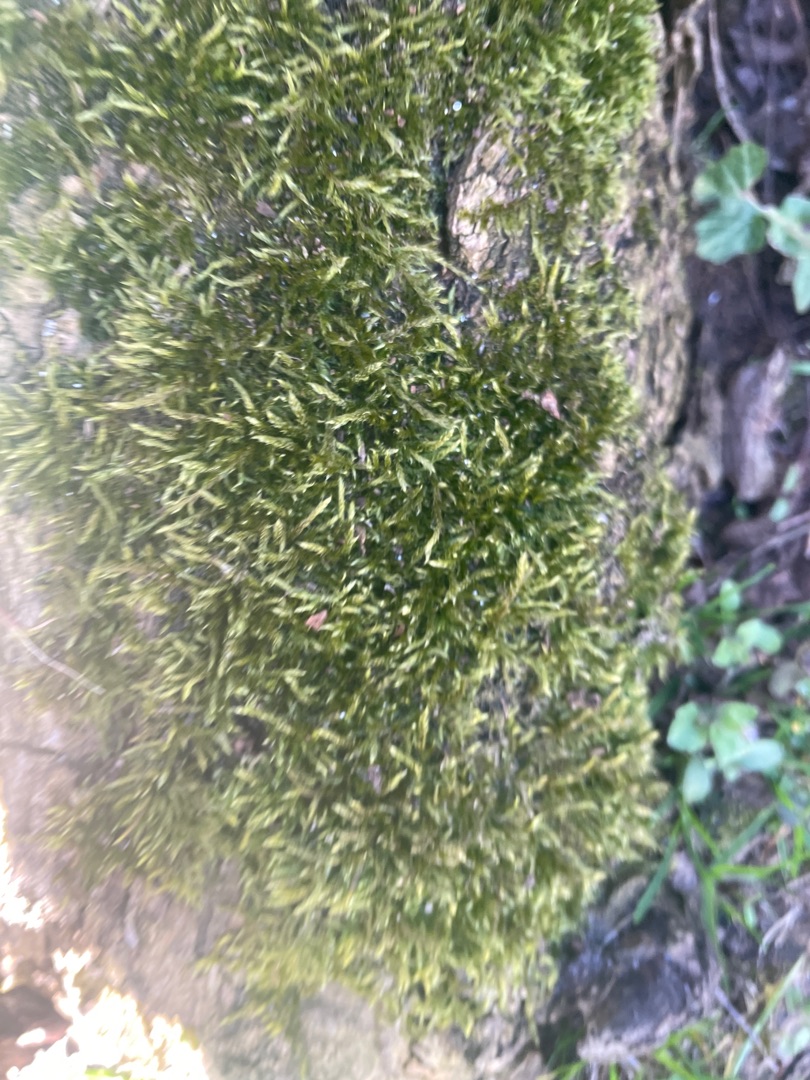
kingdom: Plantae
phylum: Bryophyta
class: Bryopsida
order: Hypnales
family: Hypnaceae
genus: Hypnum
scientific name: Hypnum
